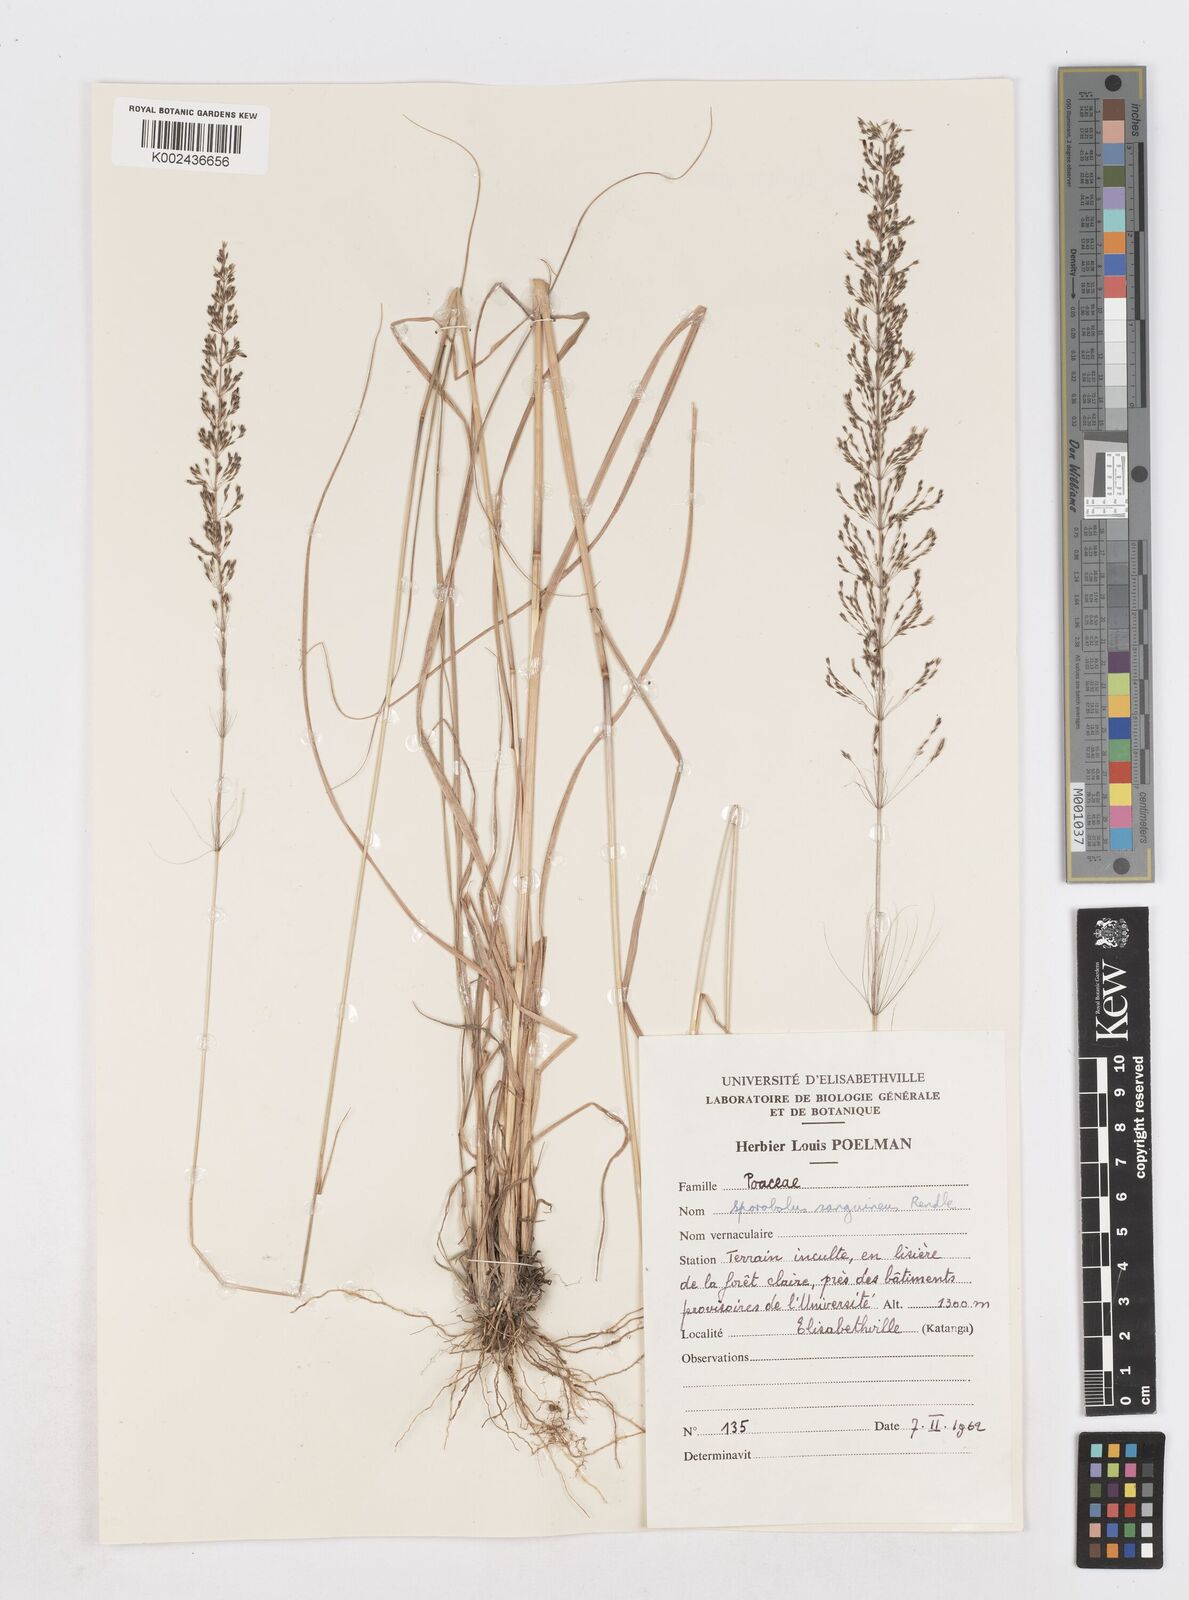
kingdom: Plantae
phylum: Tracheophyta
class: Liliopsida
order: Poales
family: Poaceae
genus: Sporobolus
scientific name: Sporobolus sanguineus
